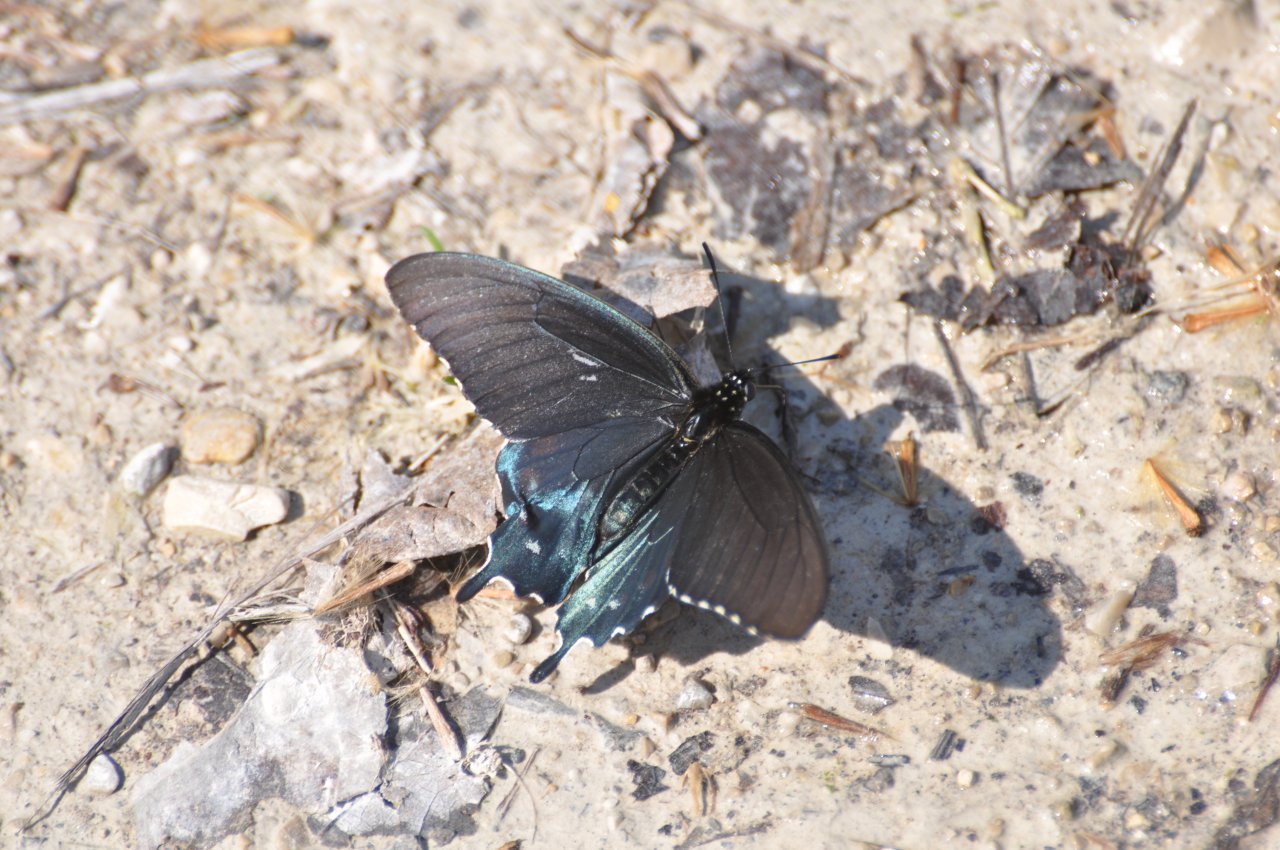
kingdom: Animalia
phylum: Arthropoda
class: Insecta
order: Lepidoptera
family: Papilionidae
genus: Battus
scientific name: Battus philenor
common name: Pipevine Swallowtail
